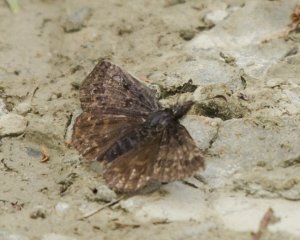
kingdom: Animalia
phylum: Arthropoda
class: Insecta
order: Lepidoptera
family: Hesperiidae
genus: Erynnis
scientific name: Erynnis icelus
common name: Dreamy Duskywing
